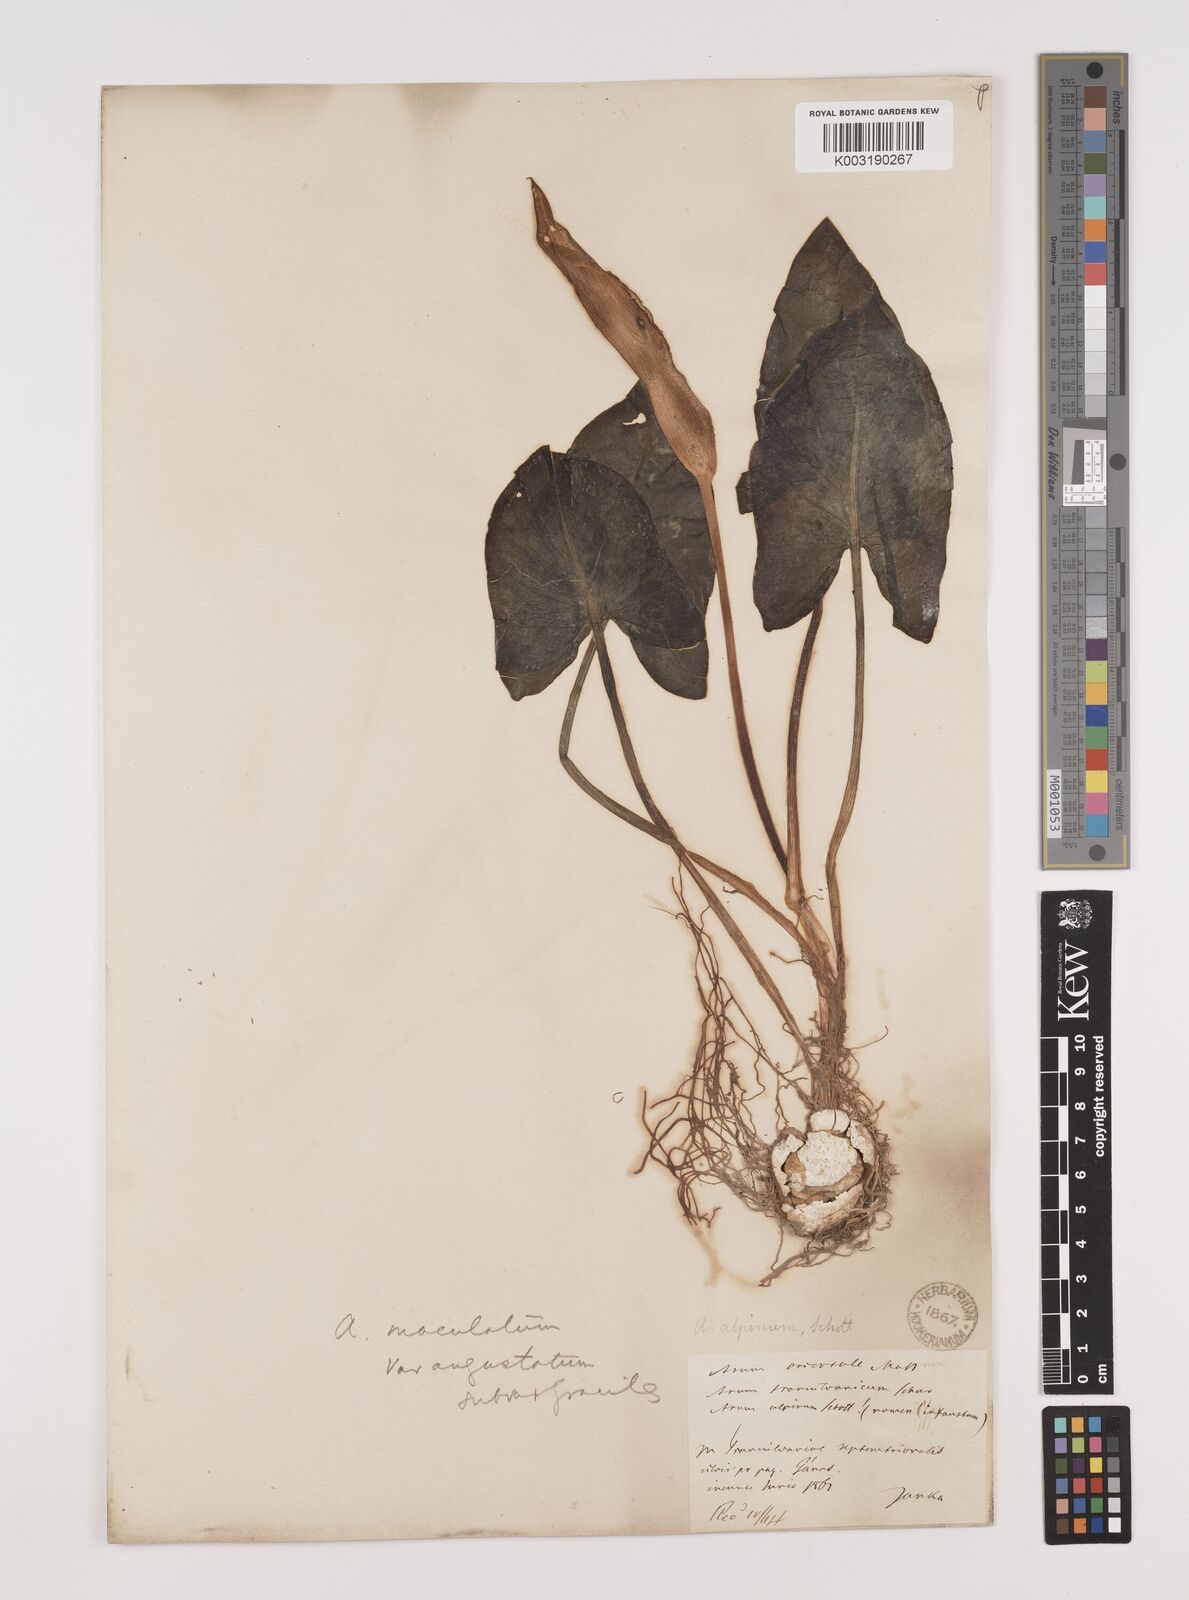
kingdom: Plantae
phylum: Tracheophyta
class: Liliopsida
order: Alismatales
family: Araceae
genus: Arum
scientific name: Arum cylindraceum
